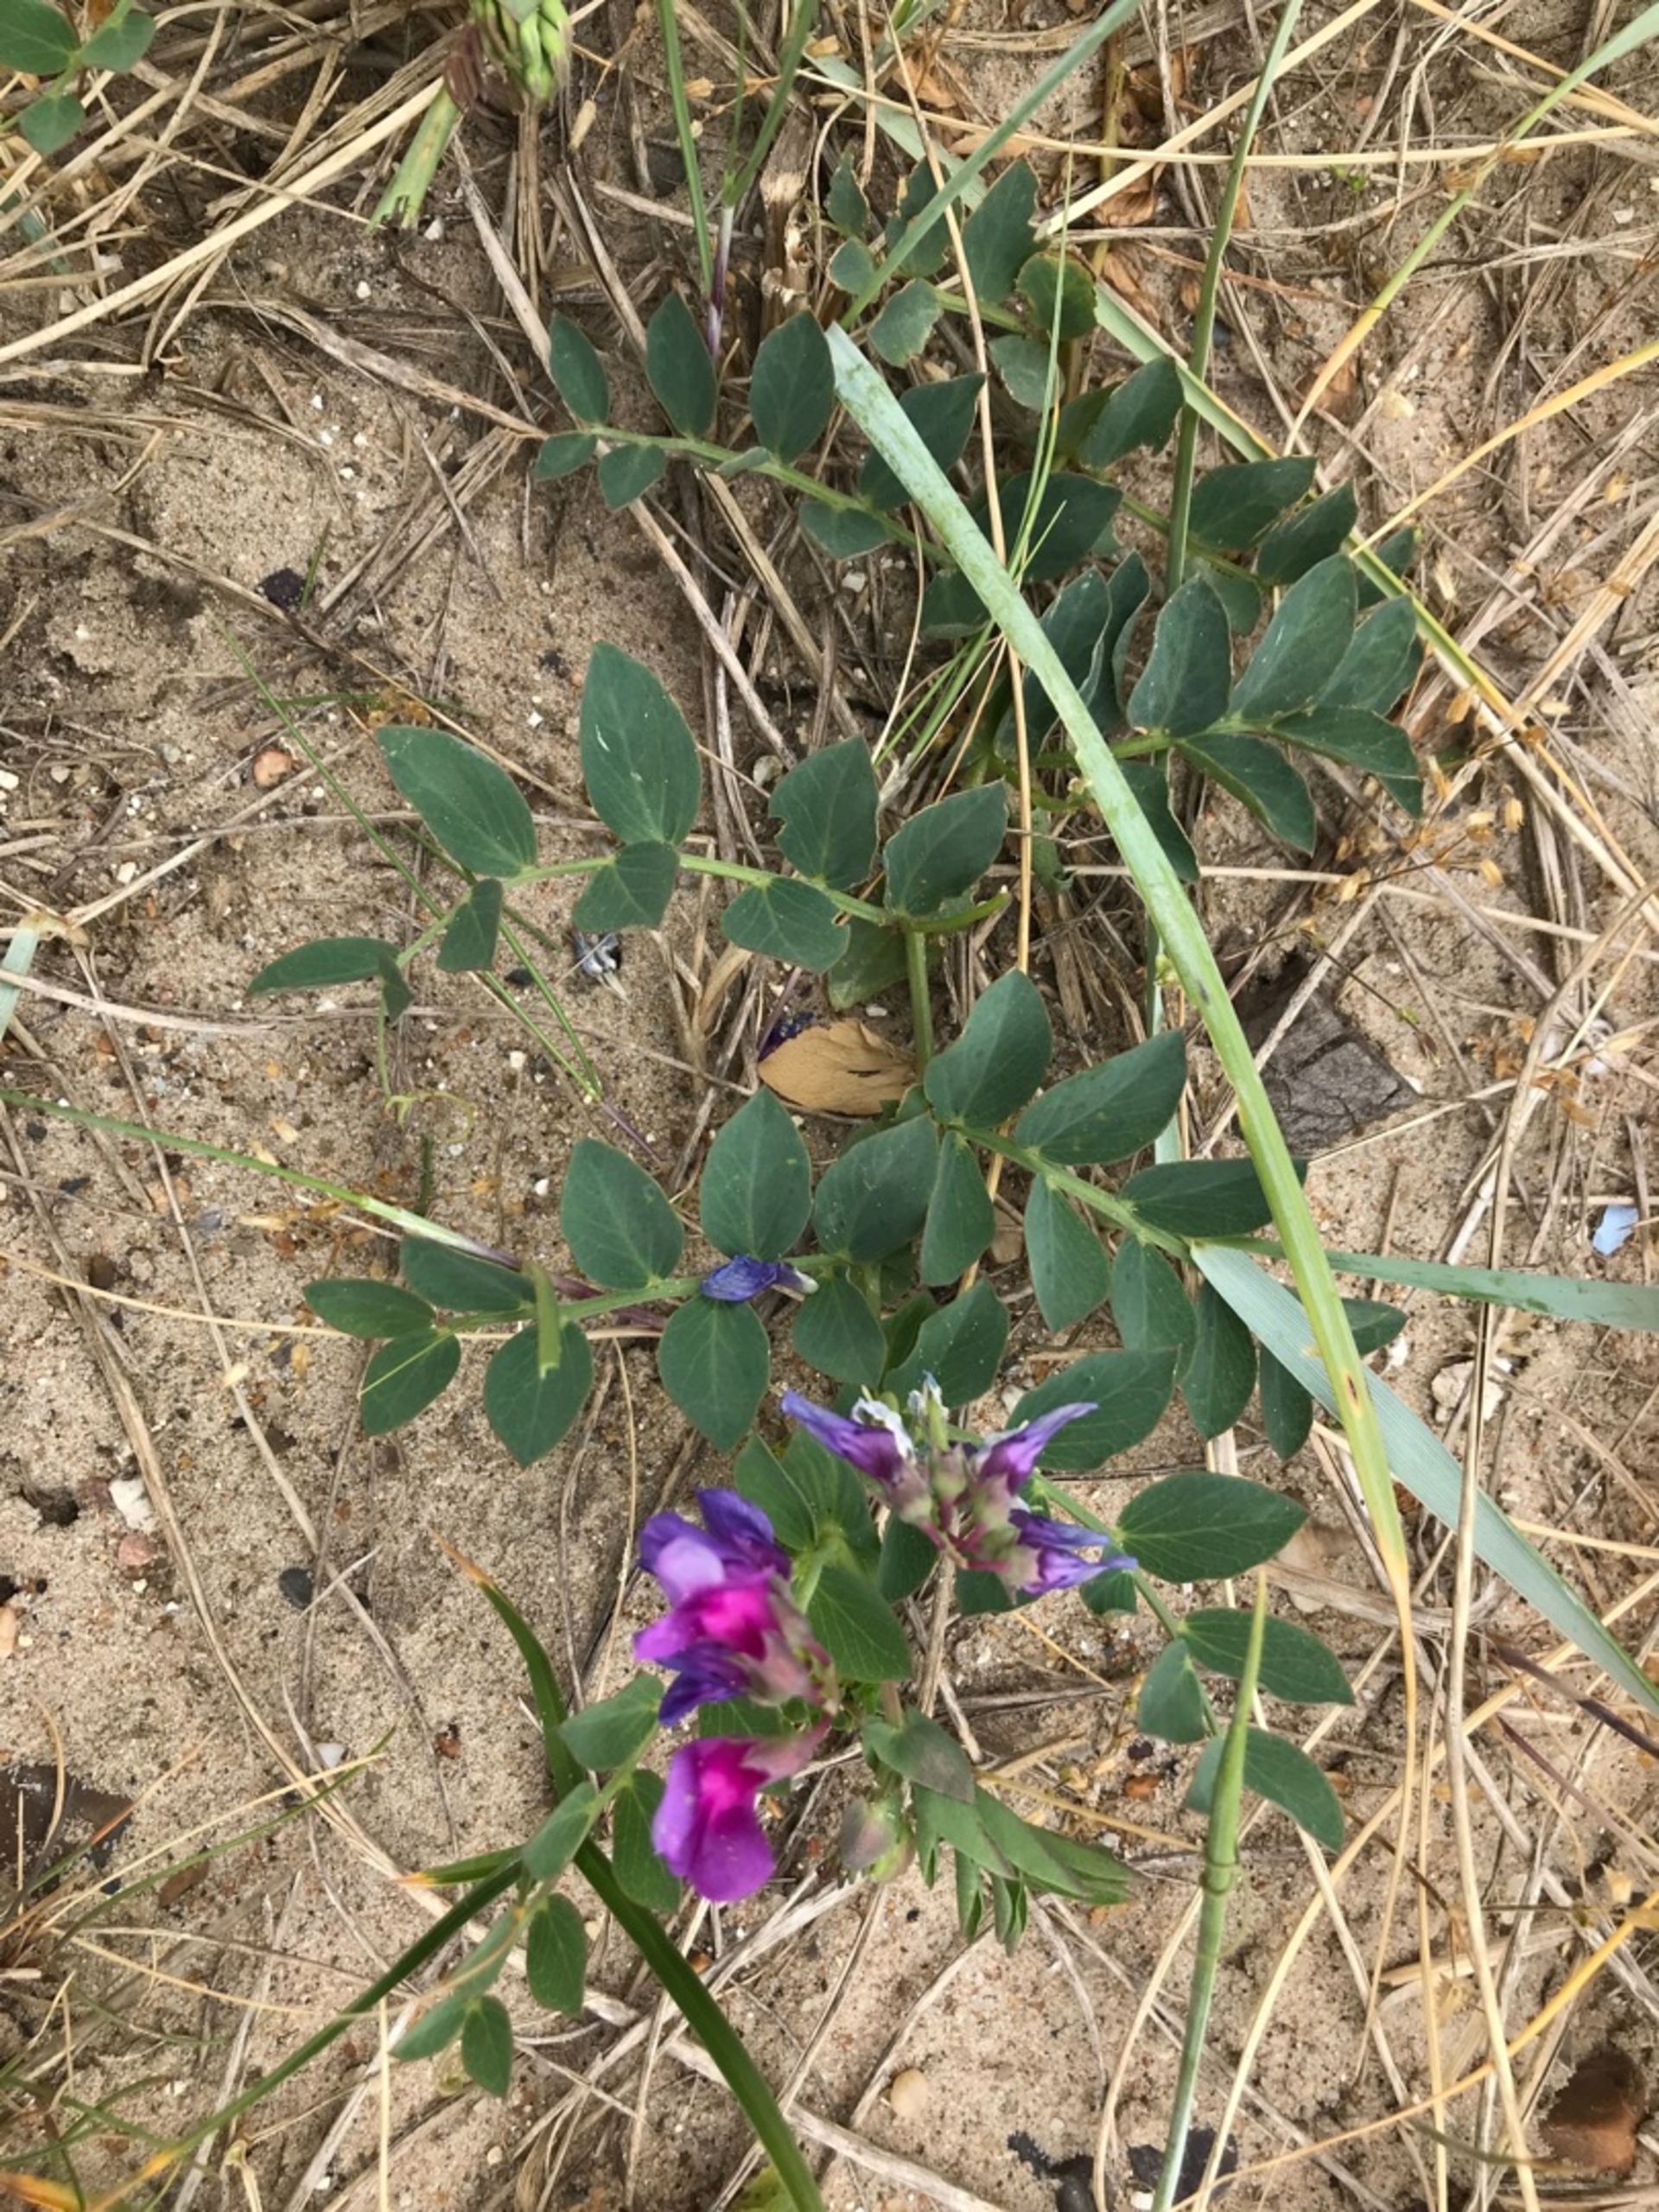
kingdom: Plantae
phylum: Tracheophyta
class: Magnoliopsida
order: Fabales
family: Fabaceae
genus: Lathyrus
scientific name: Lathyrus japonicus
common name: Strand-fladbælg
